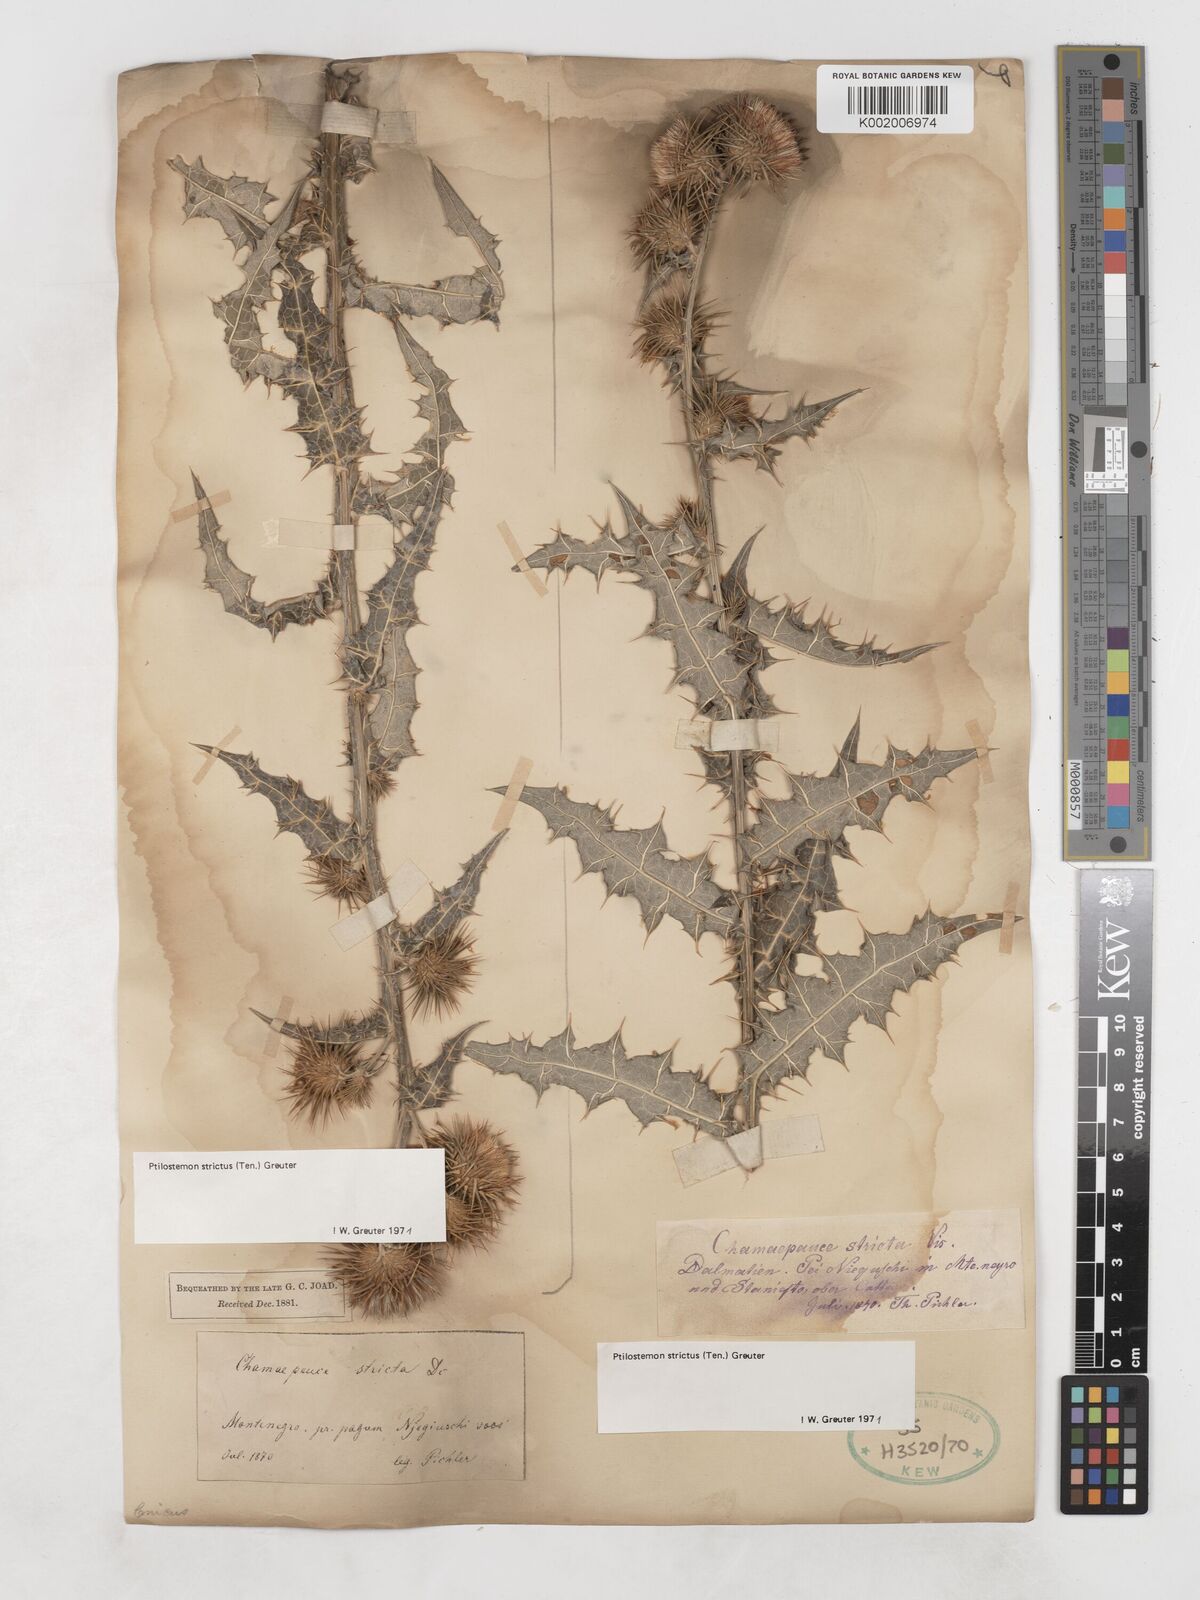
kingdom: Plantae
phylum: Tracheophyta
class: Magnoliopsida
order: Asterales
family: Asteraceae
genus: Ptilostemon
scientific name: Ptilostemon strictus
